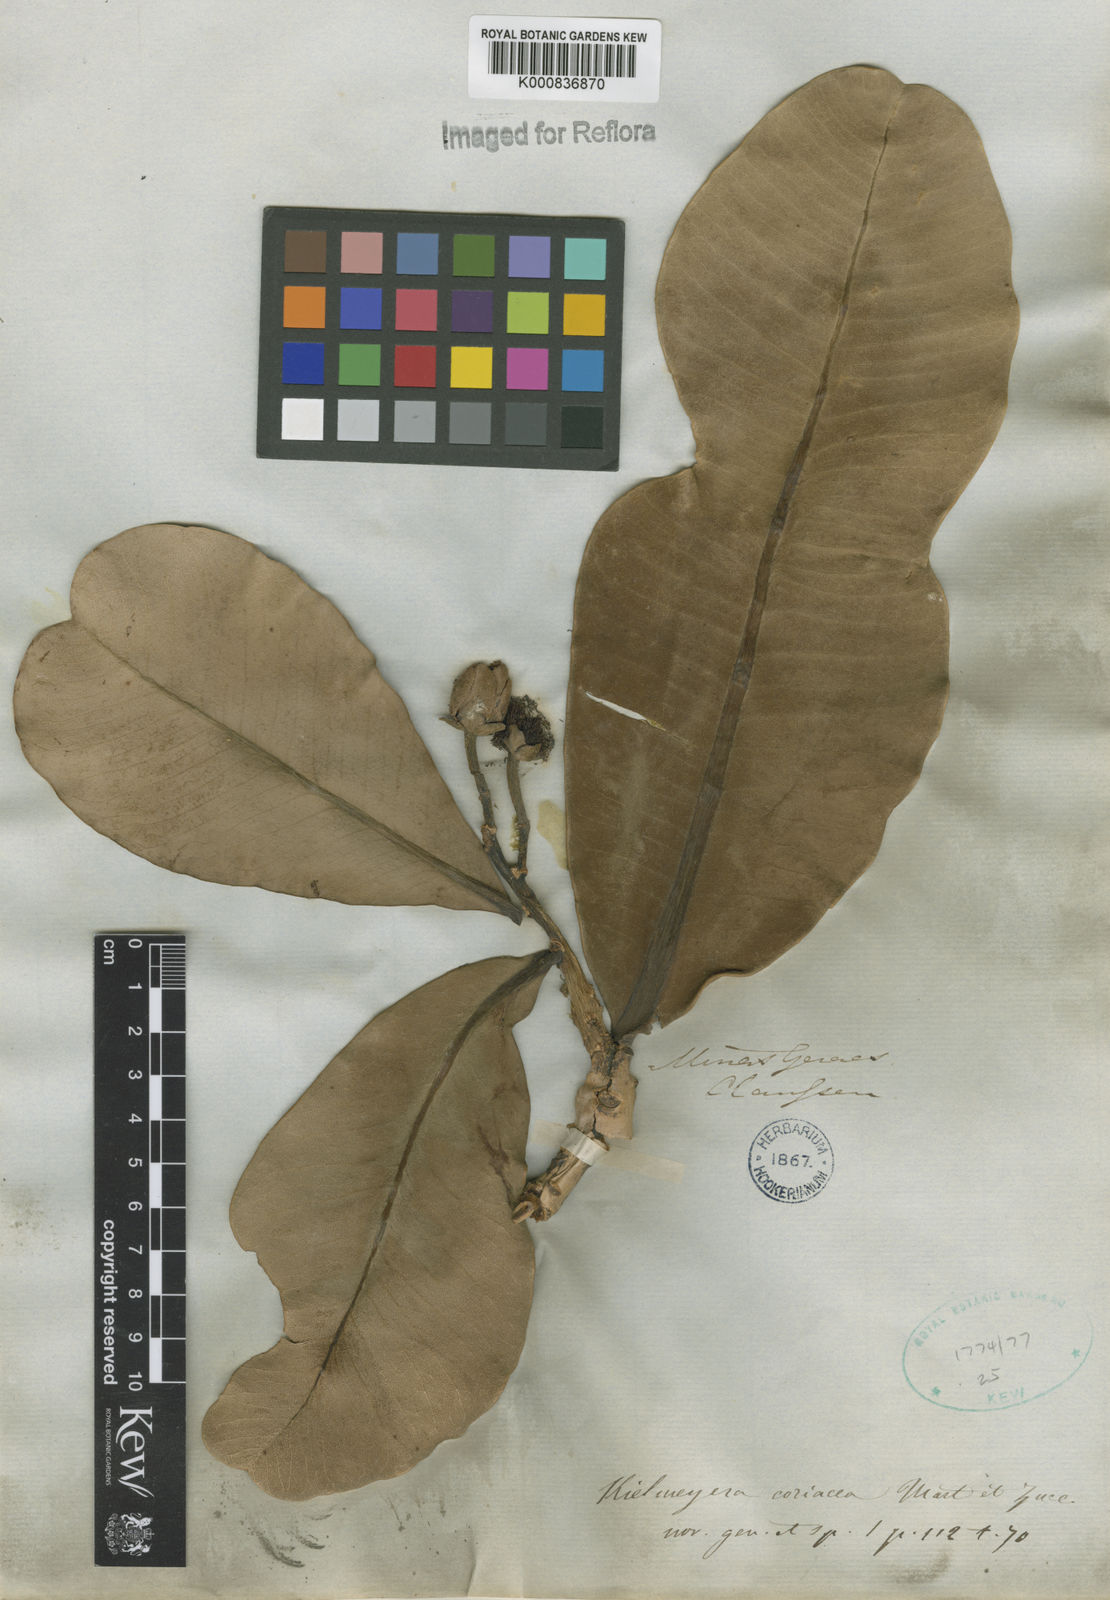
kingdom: Plantae
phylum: Tracheophyta
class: Magnoliopsida
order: Malpighiales
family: Calophyllaceae
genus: Kielmeyera
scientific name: Kielmeyera coriacea
